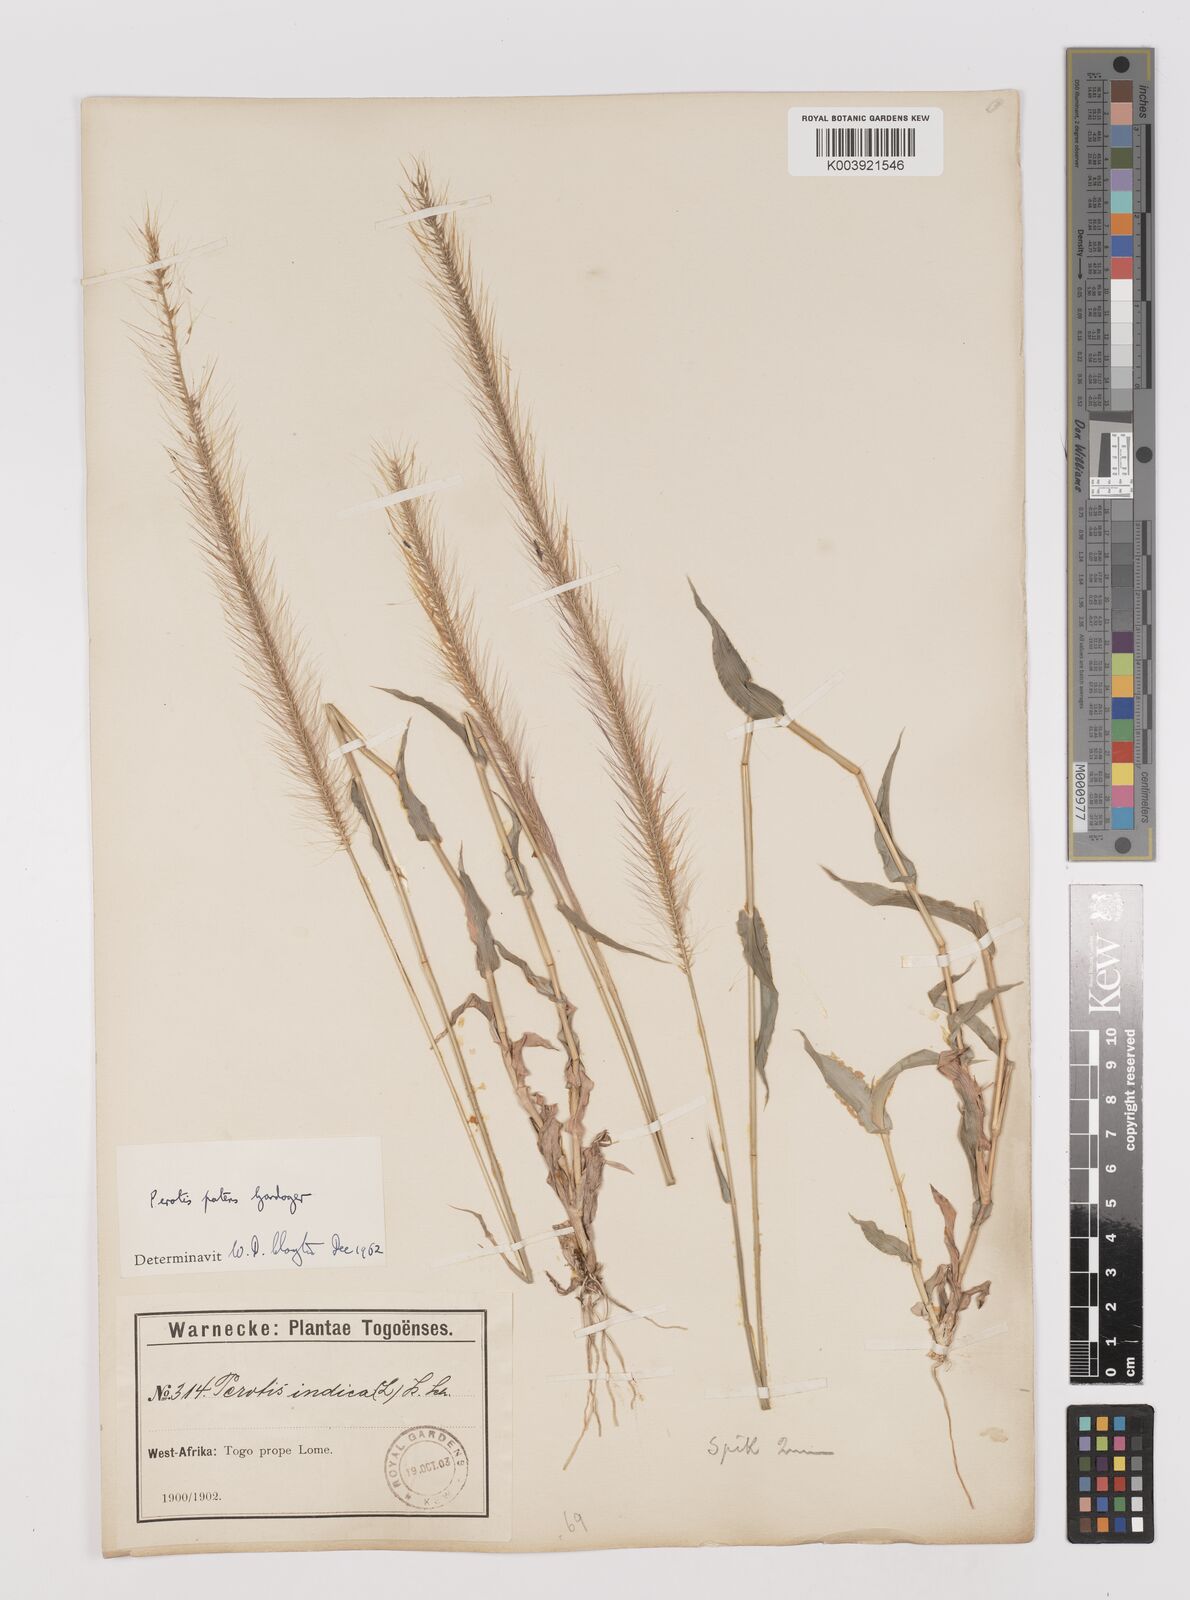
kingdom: Plantae
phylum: Tracheophyta
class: Liliopsida
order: Poales
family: Poaceae
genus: Perotis
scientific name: Perotis patens
